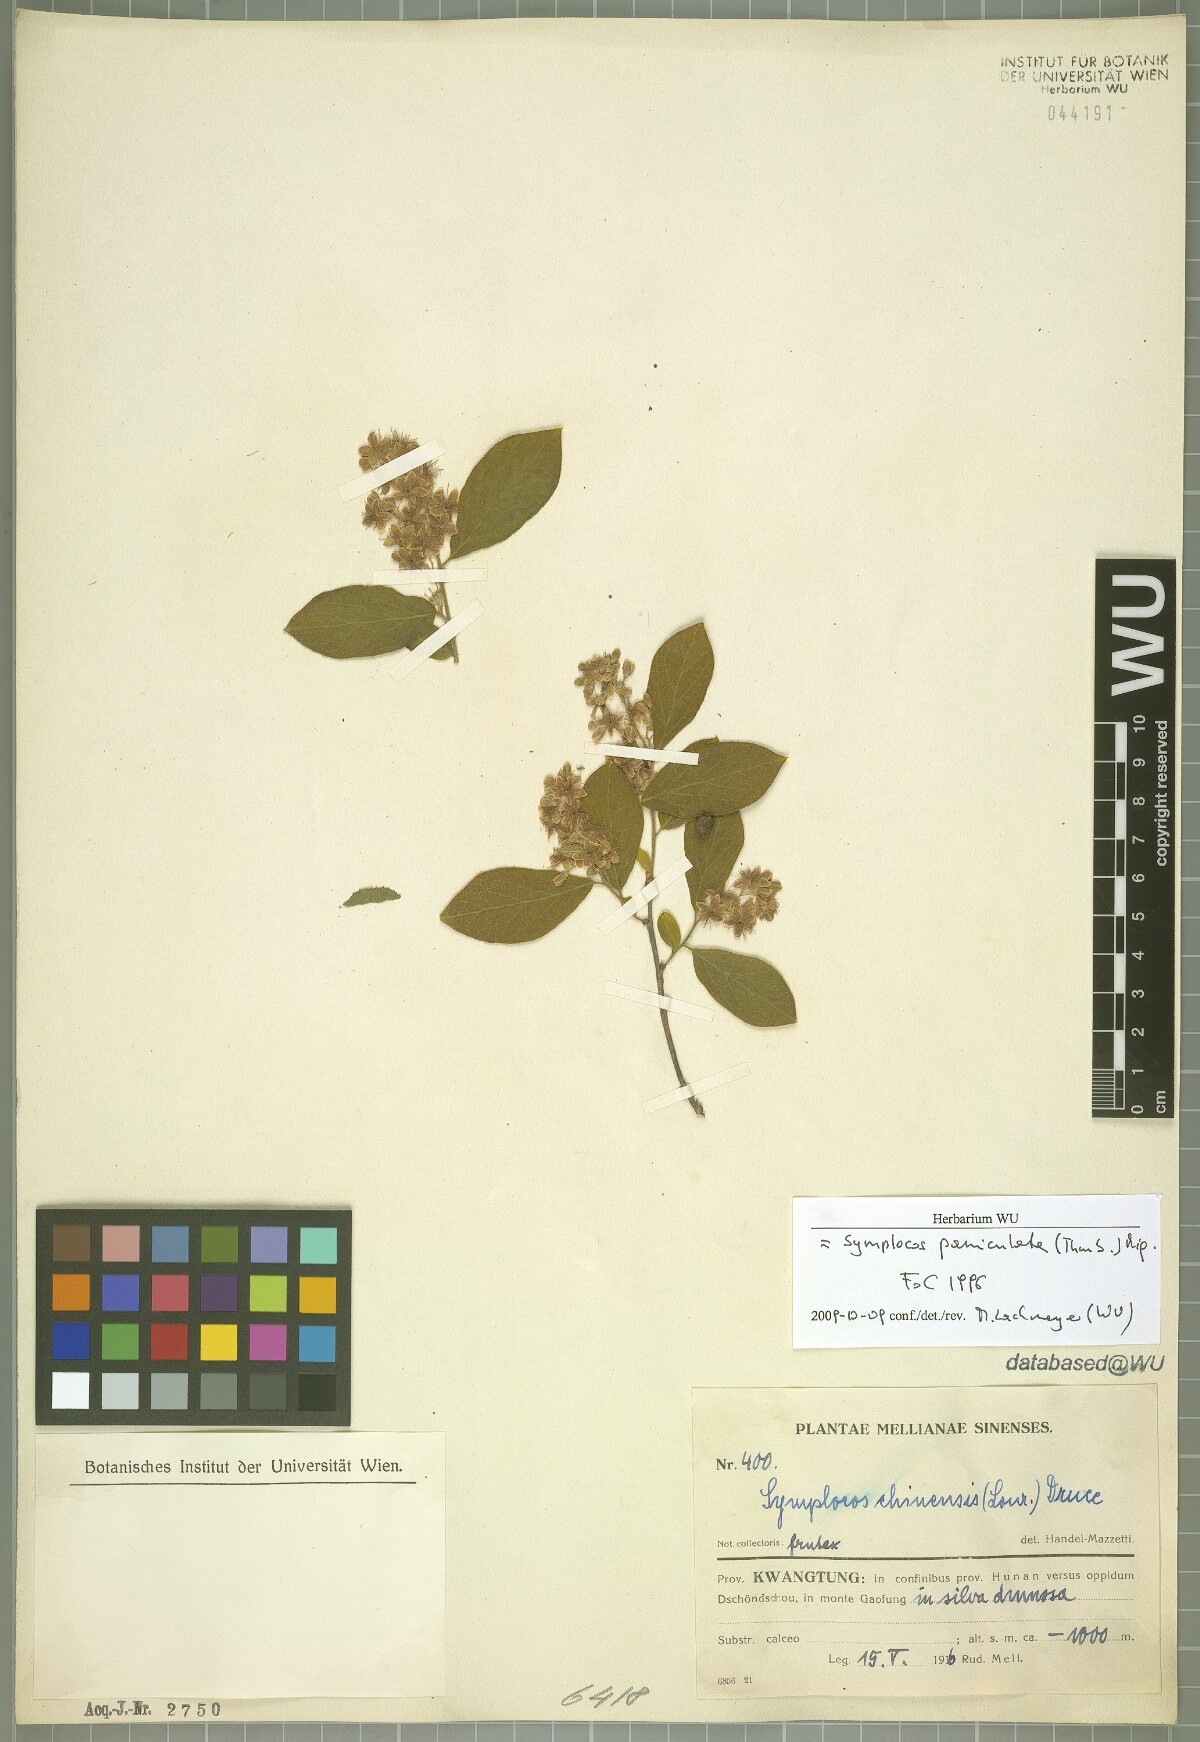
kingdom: Plantae
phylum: Tracheophyta
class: Magnoliopsida
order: Ericales
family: Symplocaceae
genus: Symplocos
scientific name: Symplocos paniculata
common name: Sapphire-berry
